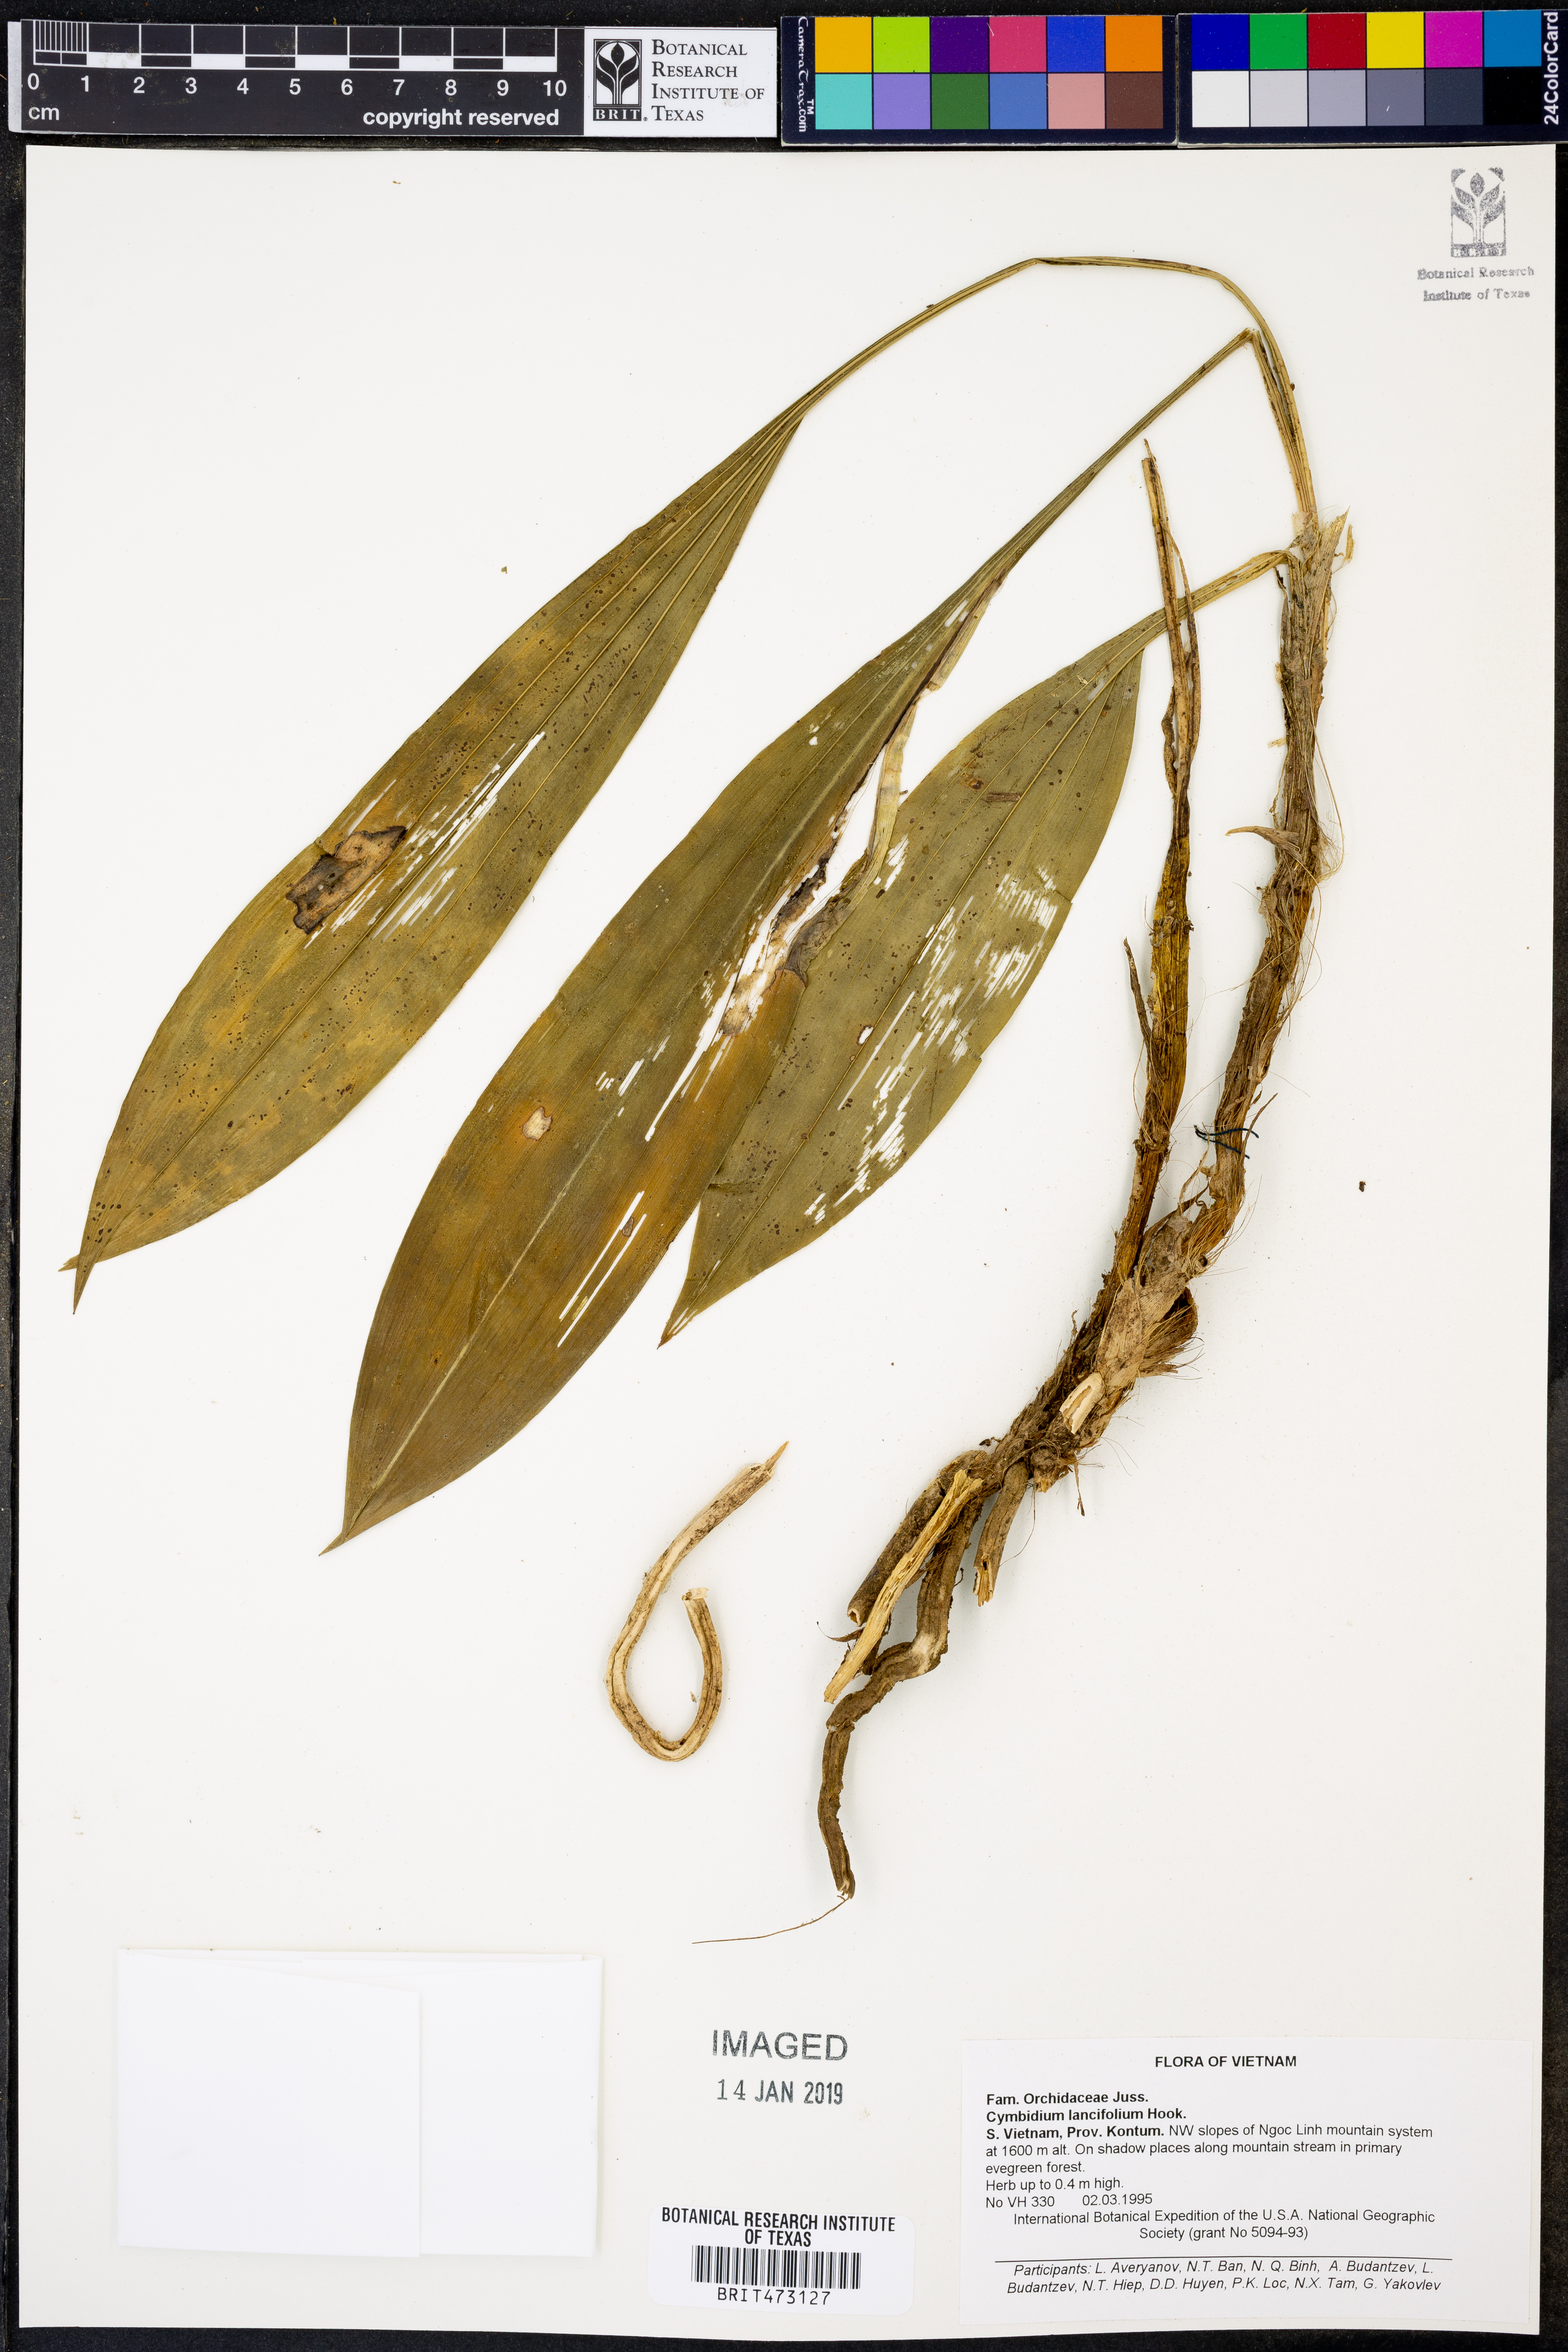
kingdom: Plantae
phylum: Tracheophyta
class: Liliopsida
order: Asparagales
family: Orchidaceae
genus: Cymbidium
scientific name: Cymbidium lancifolium
